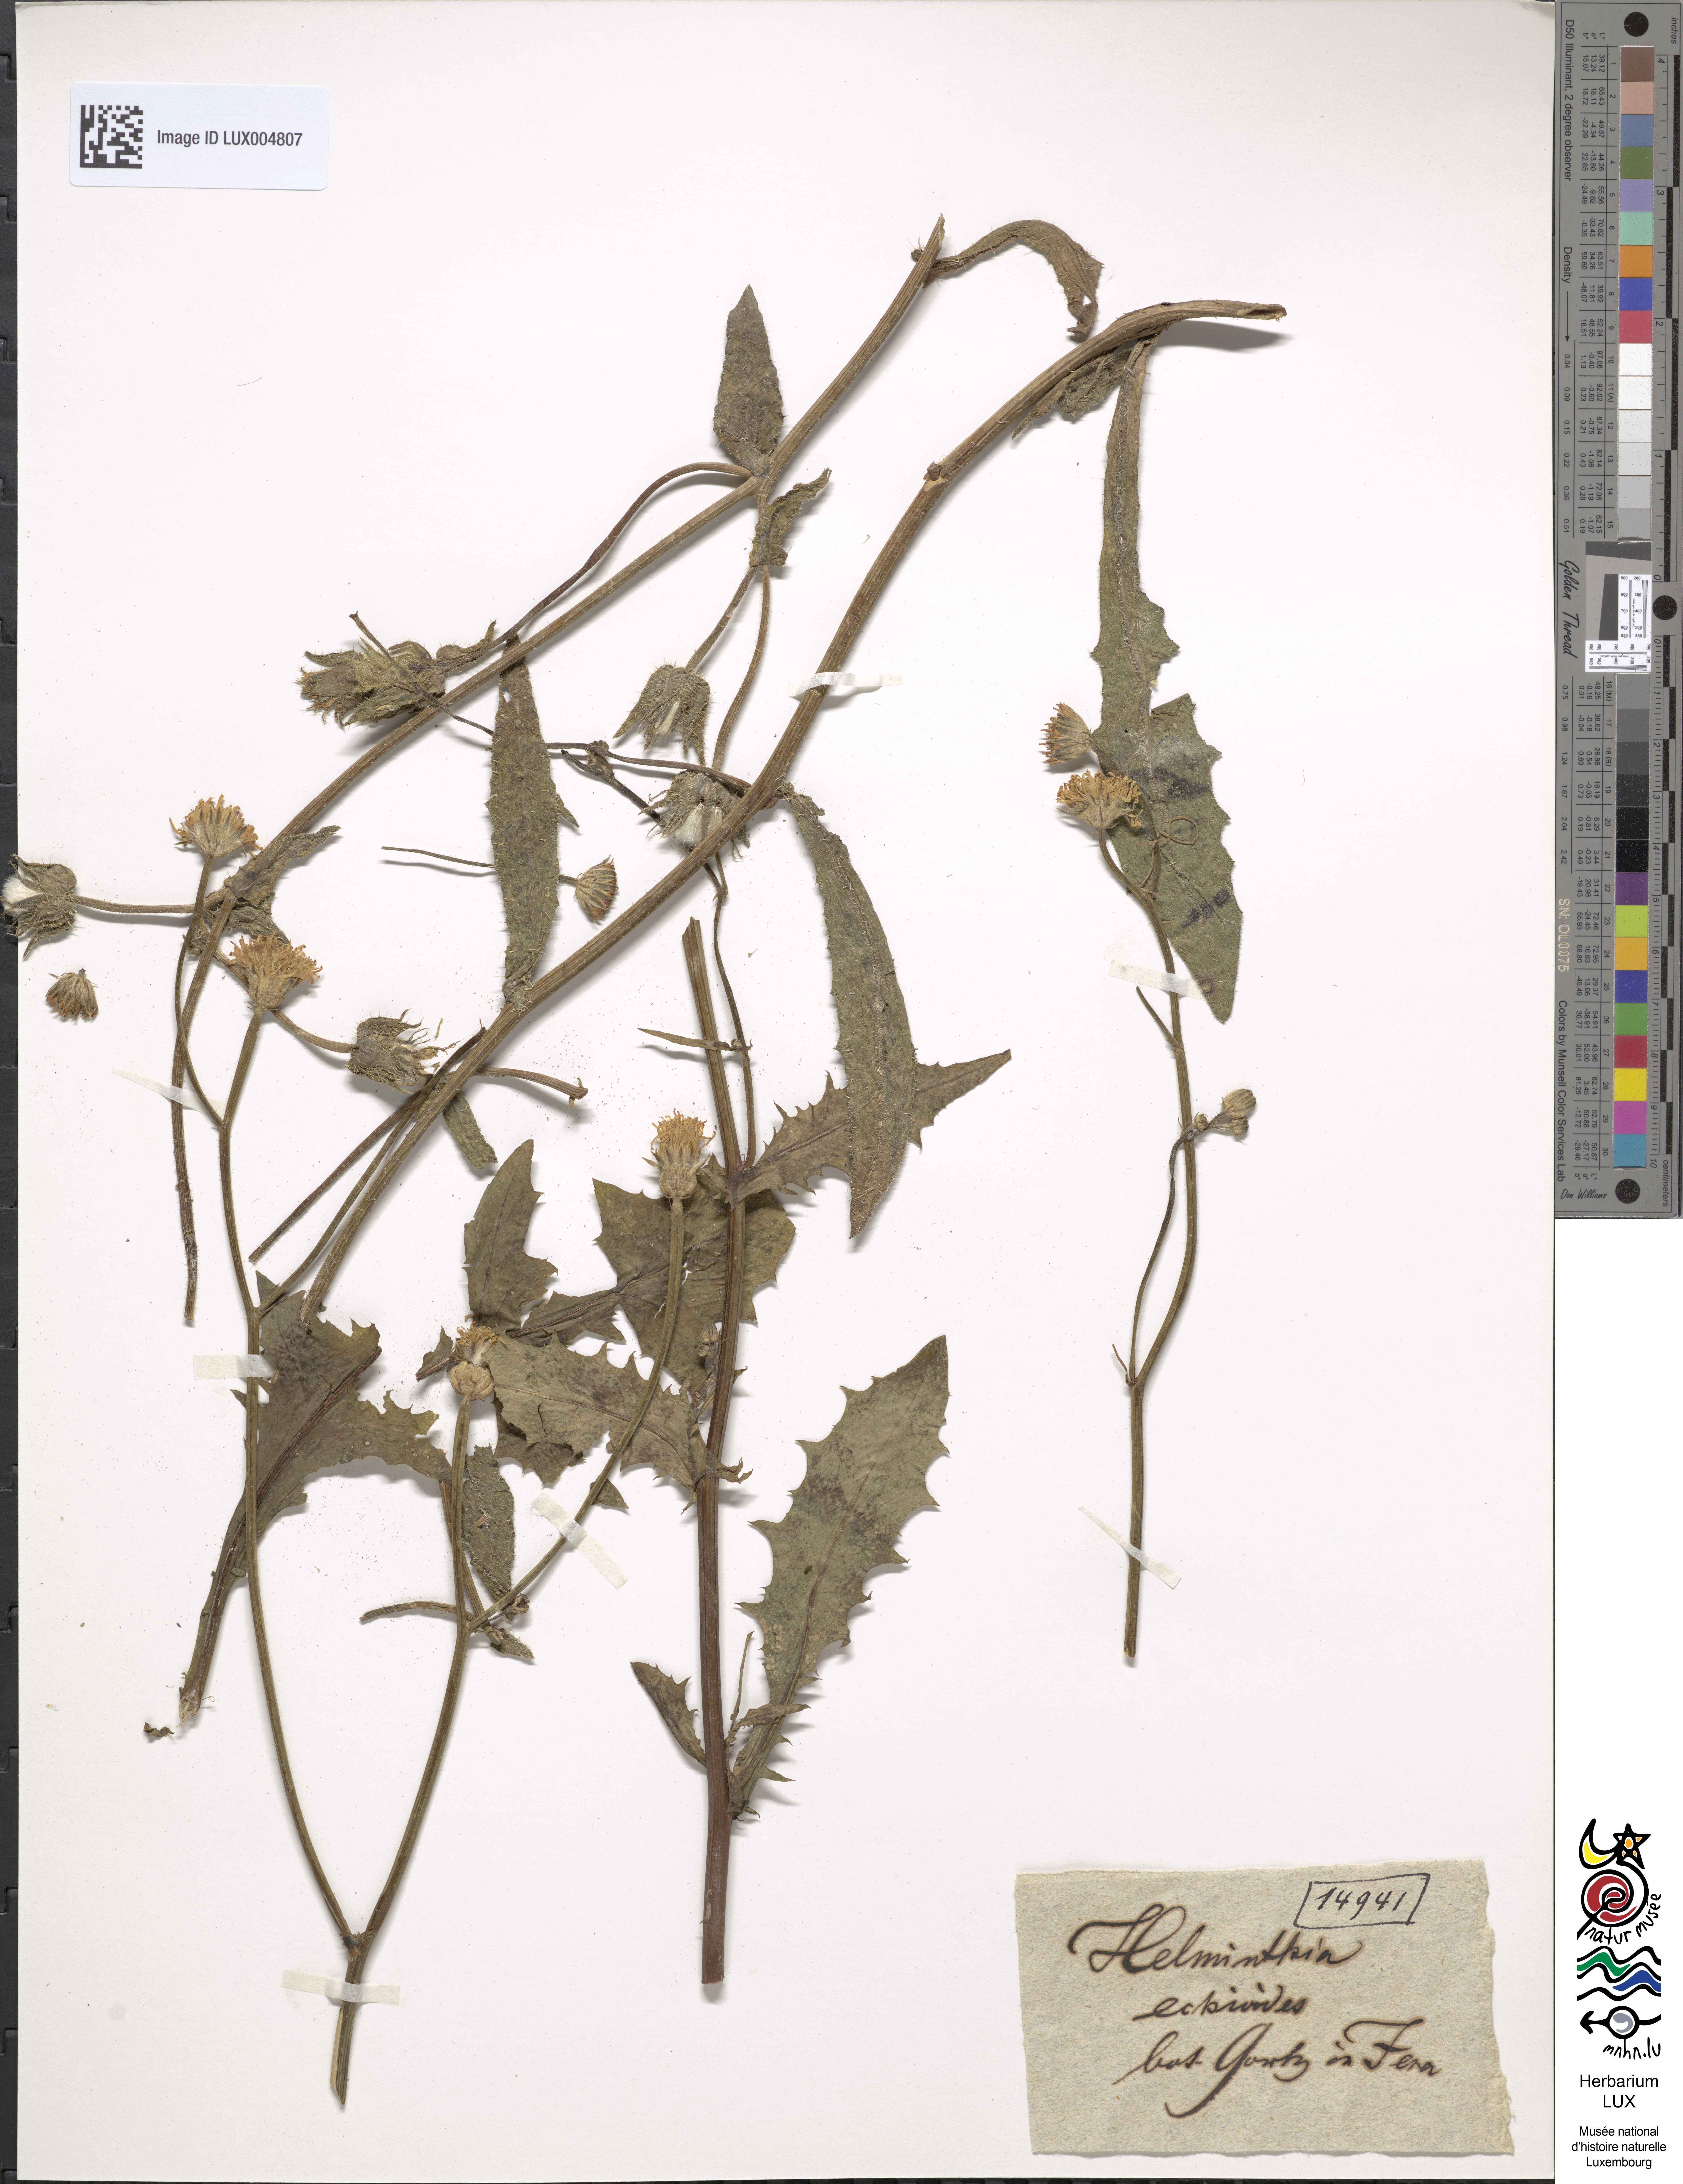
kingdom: Plantae
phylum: Tracheophyta
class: Magnoliopsida
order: Asterales
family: Asteraceae
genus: Helminthotheca
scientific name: Helminthotheca echioides
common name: Ox-tongue
